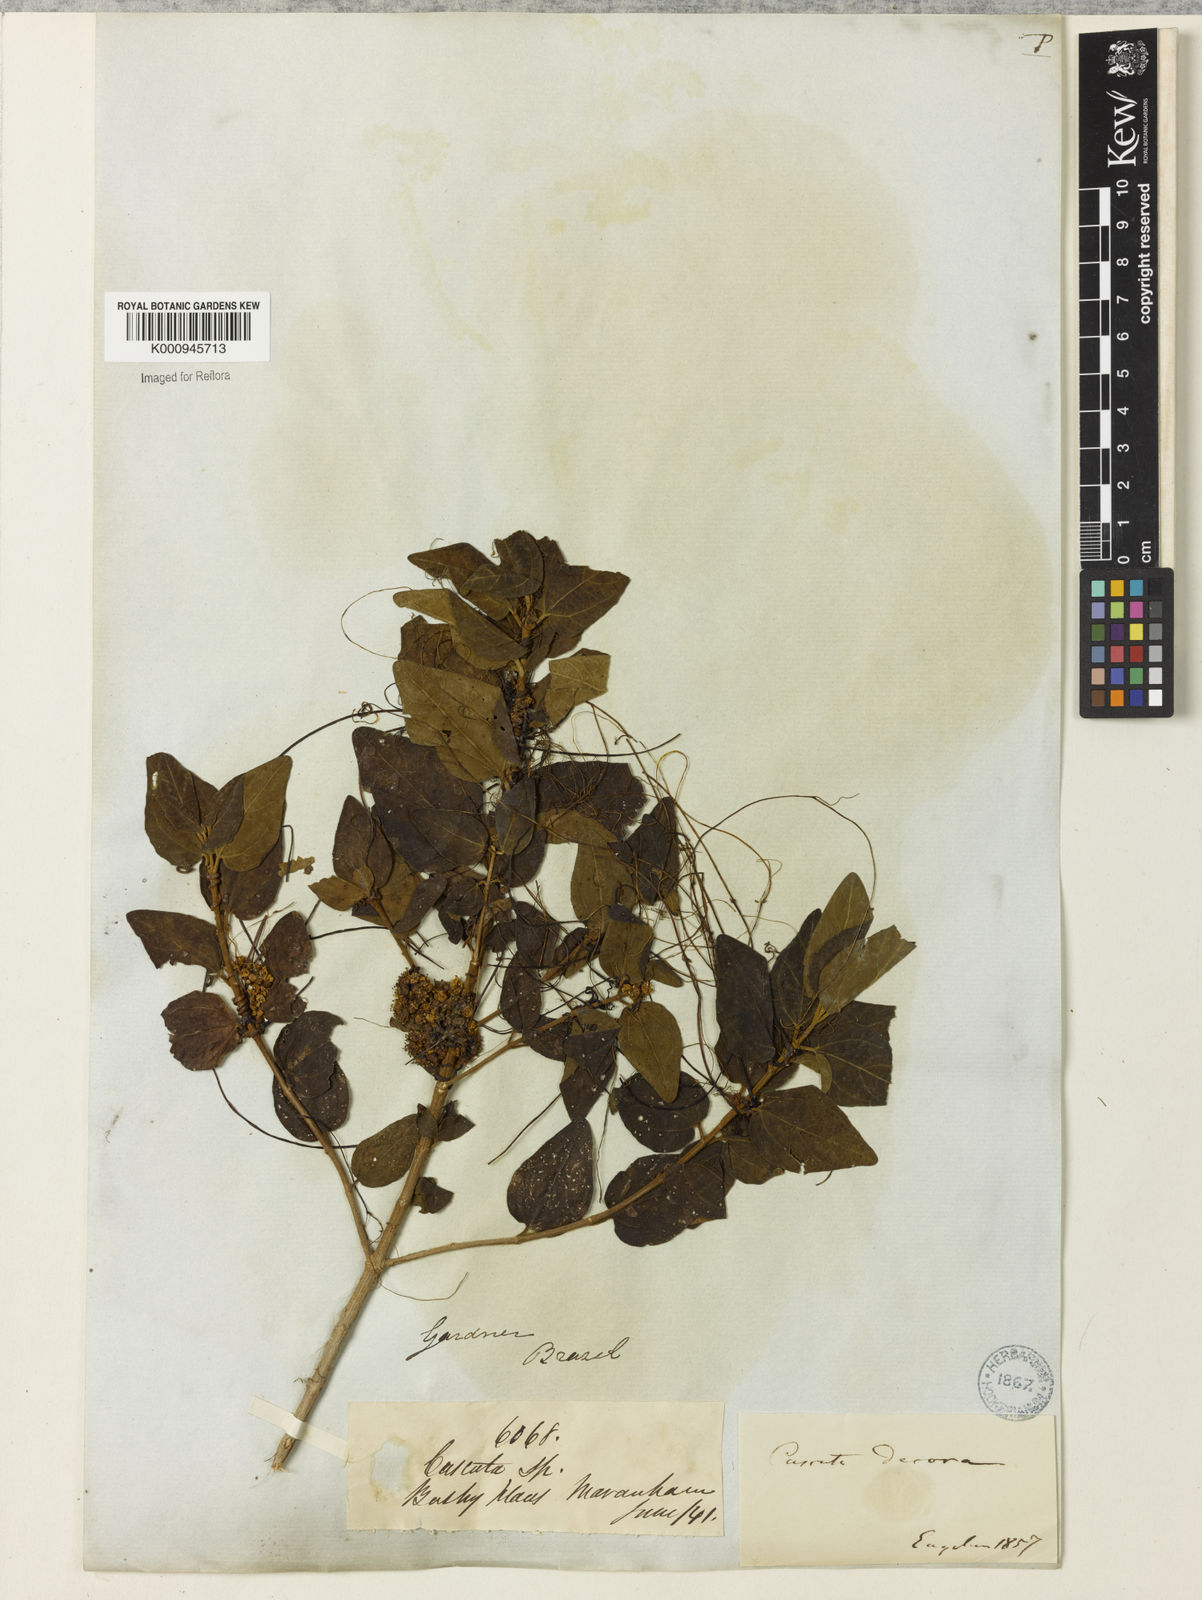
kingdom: Plantae
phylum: Tracheophyta
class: Magnoliopsida
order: Solanales
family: Convolvulaceae
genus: Cuscuta
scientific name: Cuscuta indecora
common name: Large-seed dodder
